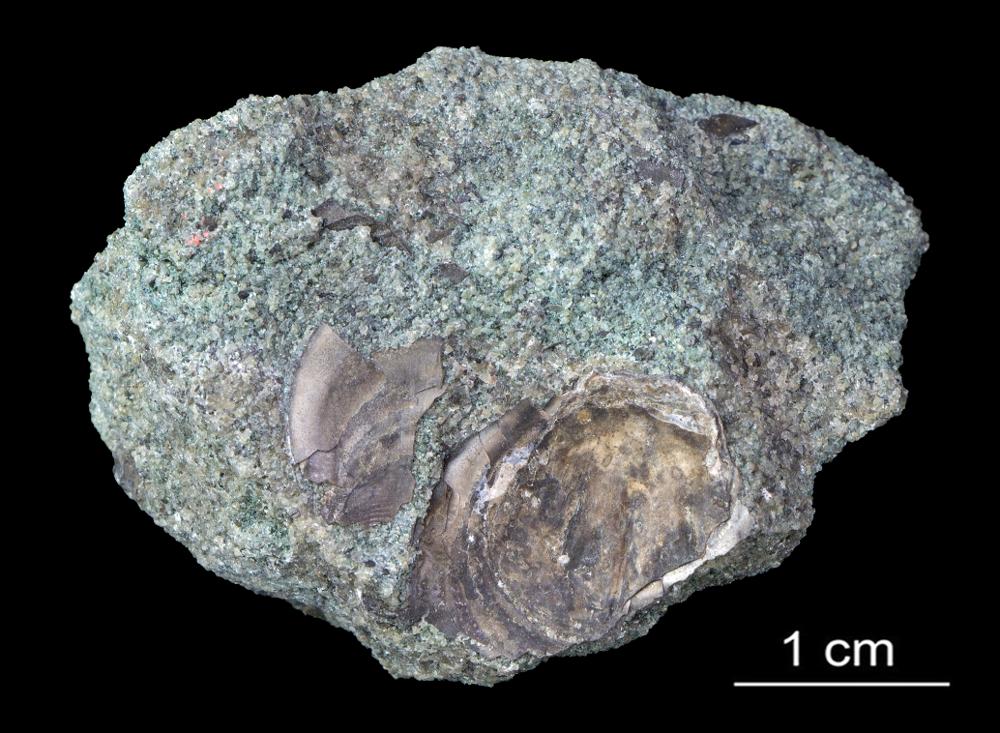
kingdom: Animalia
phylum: Brachiopoda
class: Lingulata
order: Lingulida
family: Zhanatellidae
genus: Thysanotos
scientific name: Thysanotos
